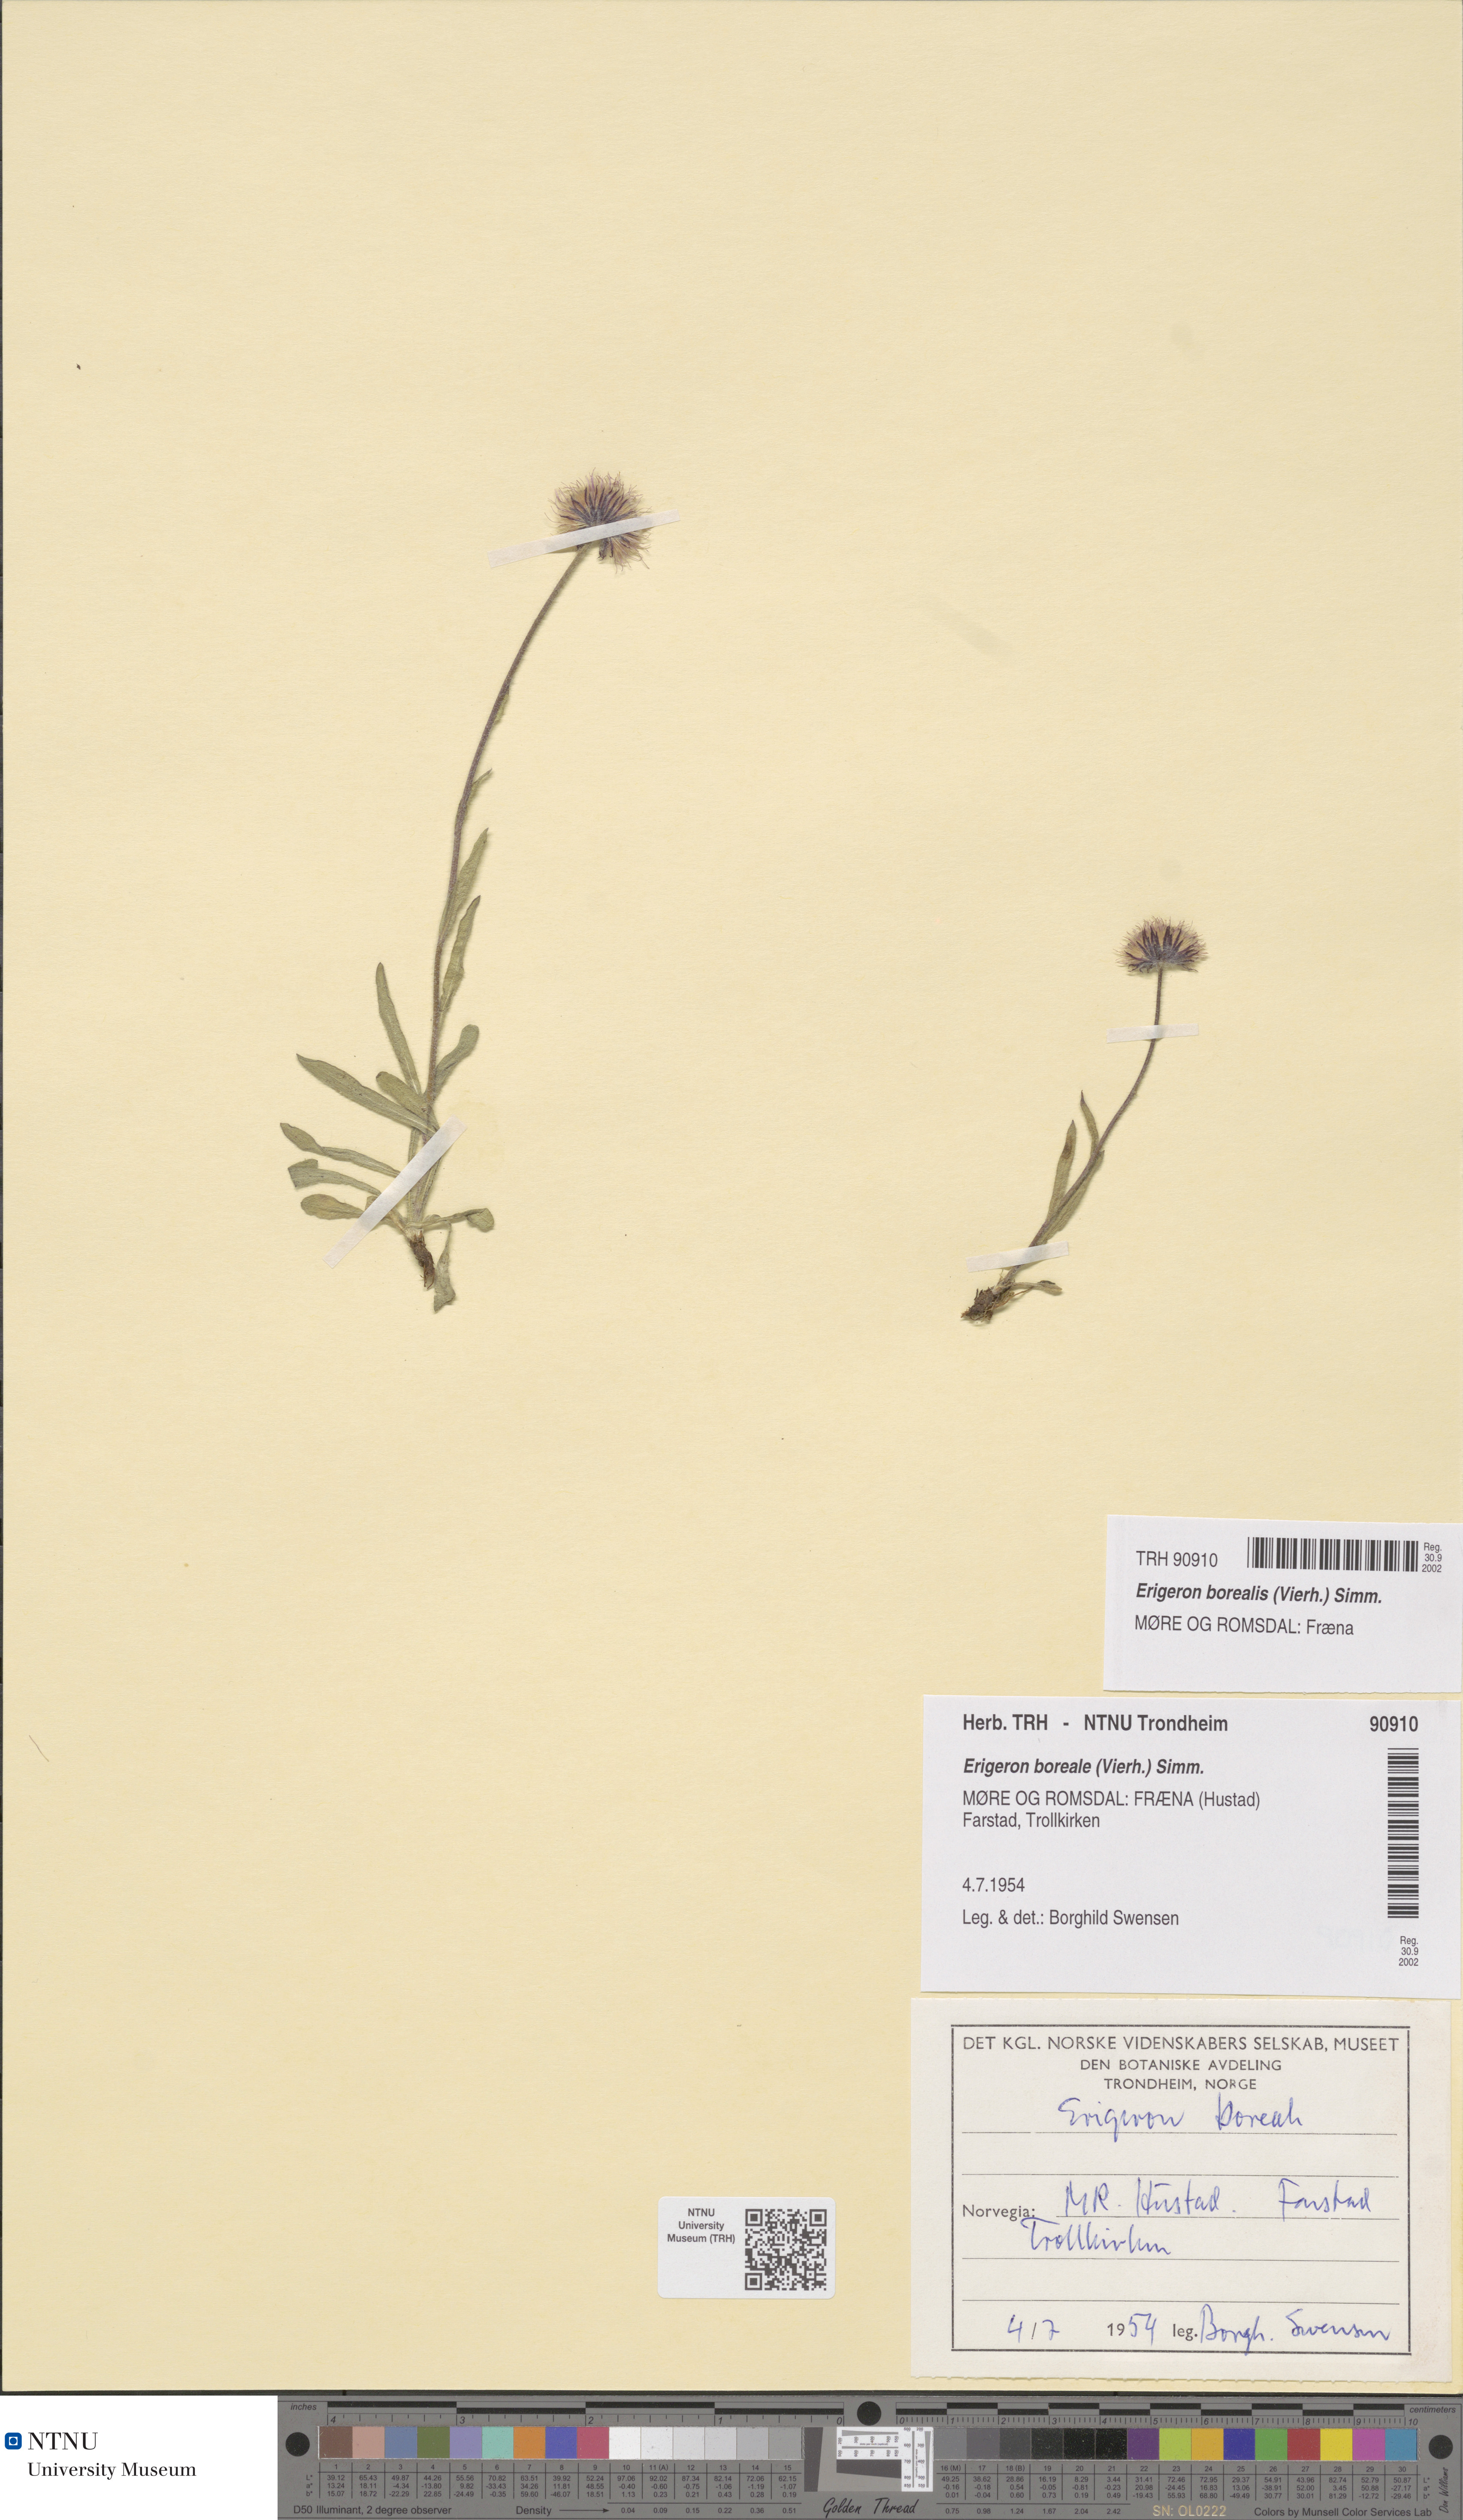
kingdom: Plantae
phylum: Tracheophyta
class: Magnoliopsida
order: Asterales
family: Asteraceae
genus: Erigeron
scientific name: Erigeron borealis
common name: Alpine fleabane
